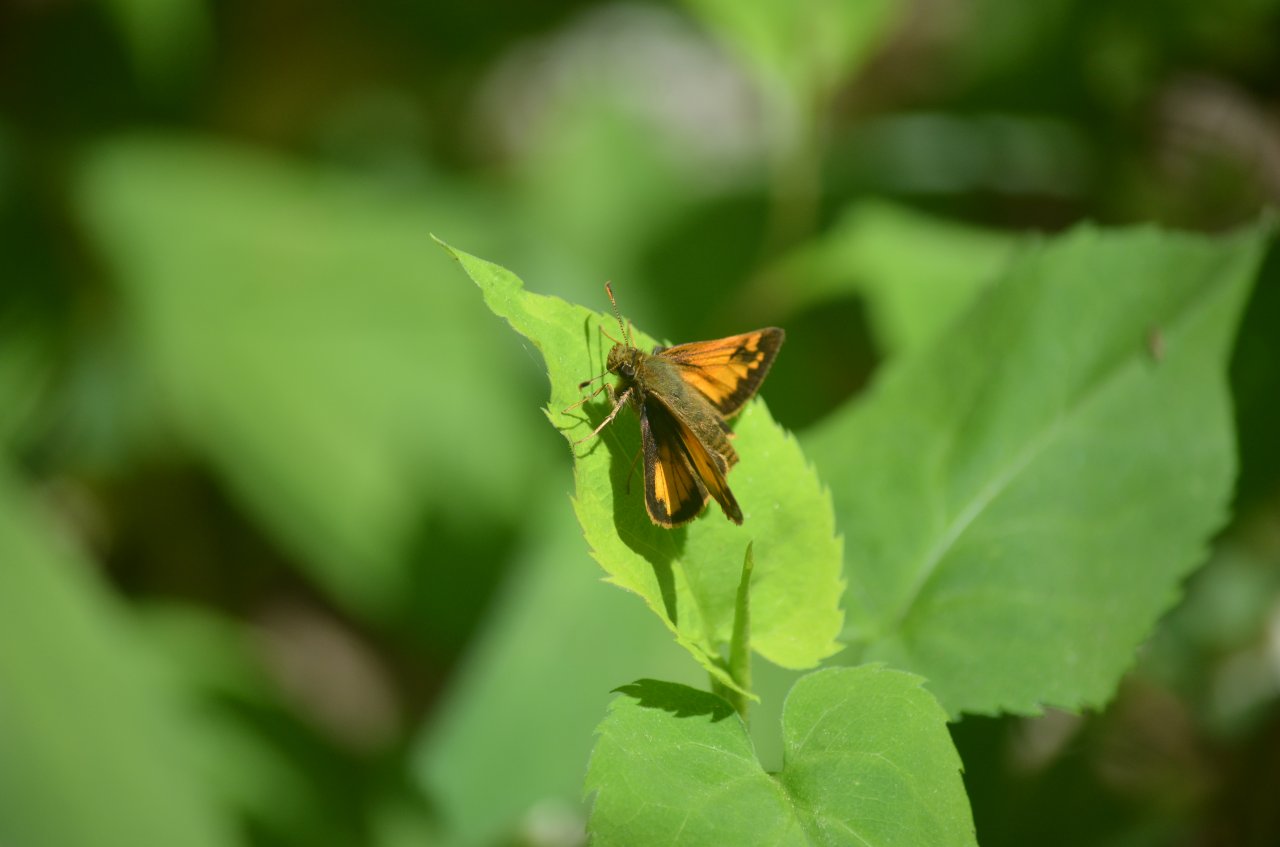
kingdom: Animalia
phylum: Arthropoda
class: Insecta
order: Lepidoptera
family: Hesperiidae
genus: Lon
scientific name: Lon hobomok
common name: Hobomok Skipper
